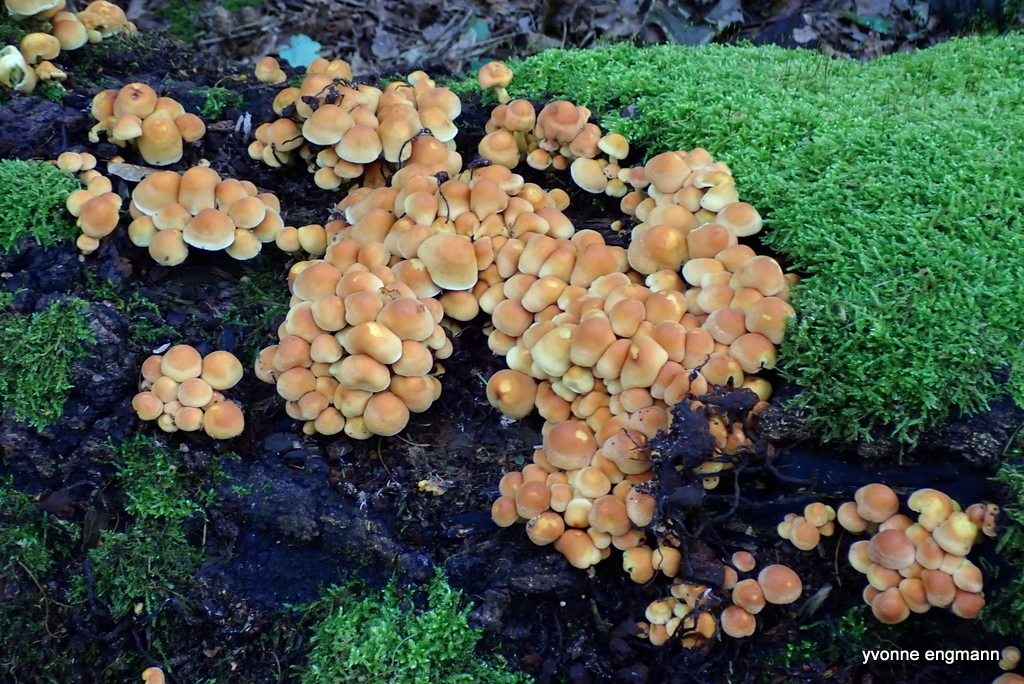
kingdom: Fungi
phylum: Basidiomycota
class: Agaricomycetes
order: Agaricales
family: Strophariaceae
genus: Hypholoma
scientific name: Hypholoma fasciculare
